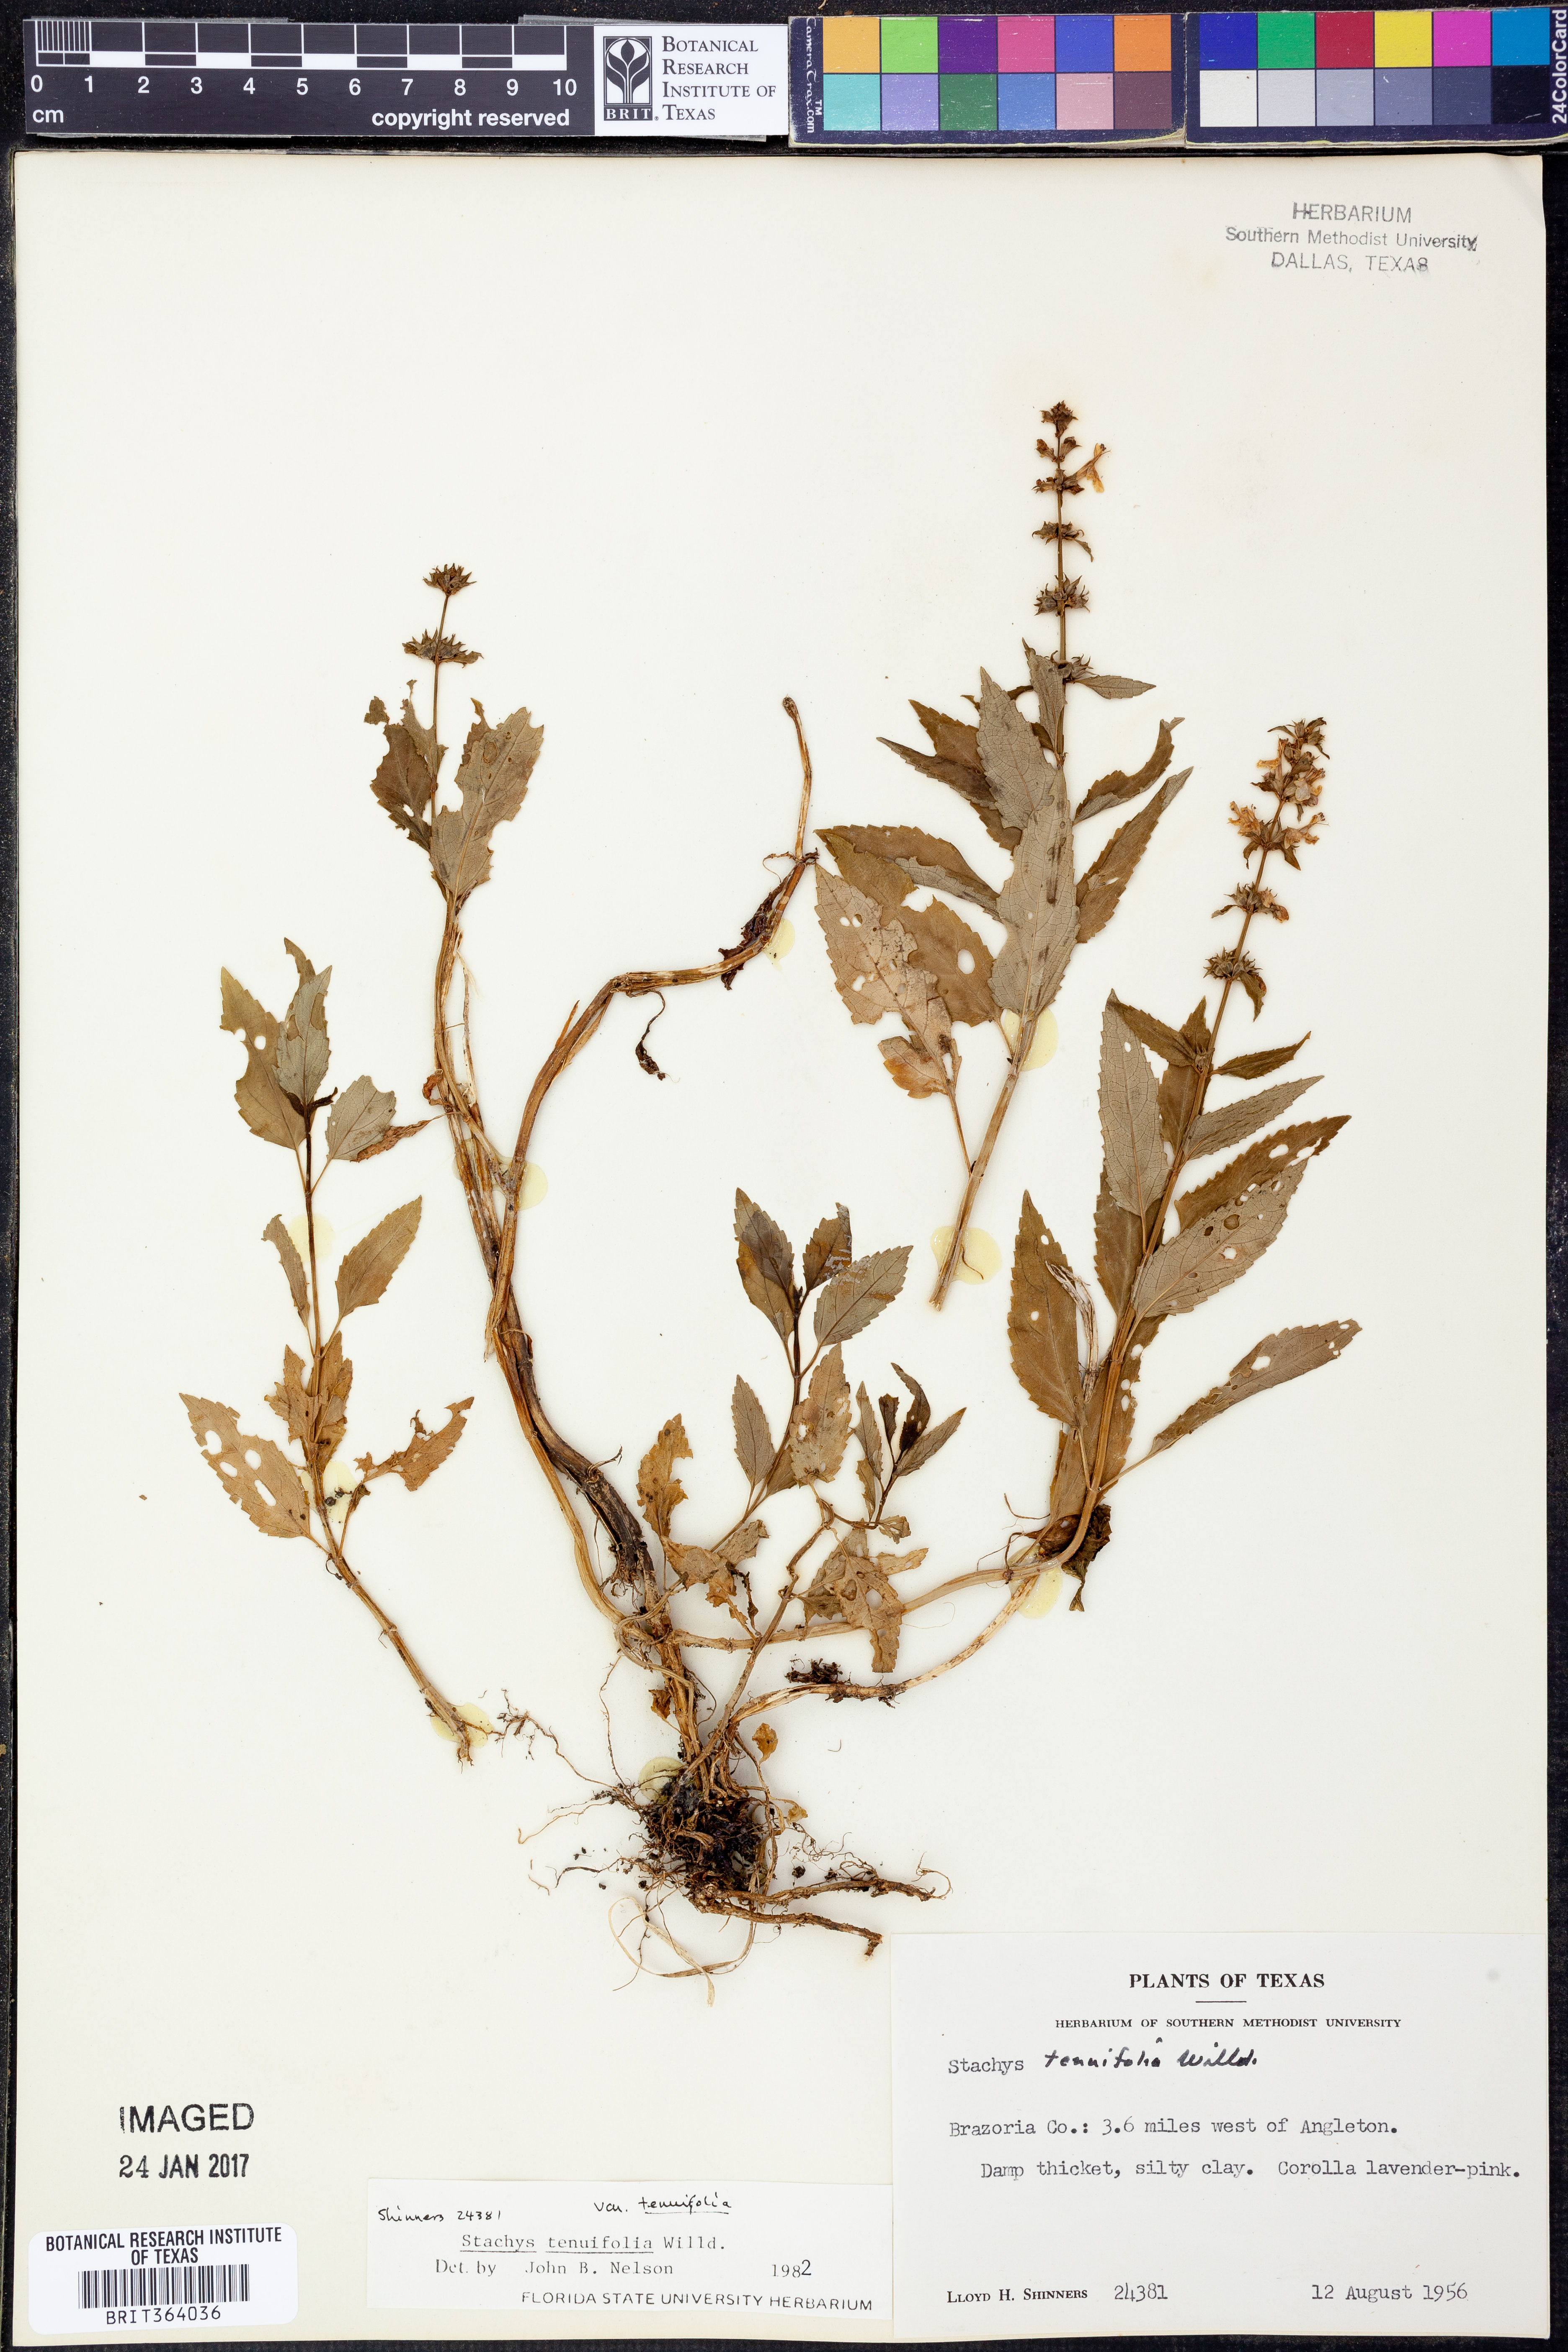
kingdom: Plantae
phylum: Tracheophyta
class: Magnoliopsida
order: Lamiales
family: Lamiaceae
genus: Stachys
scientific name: Stachys tenuifolia
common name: Smooth hedge-nettle
